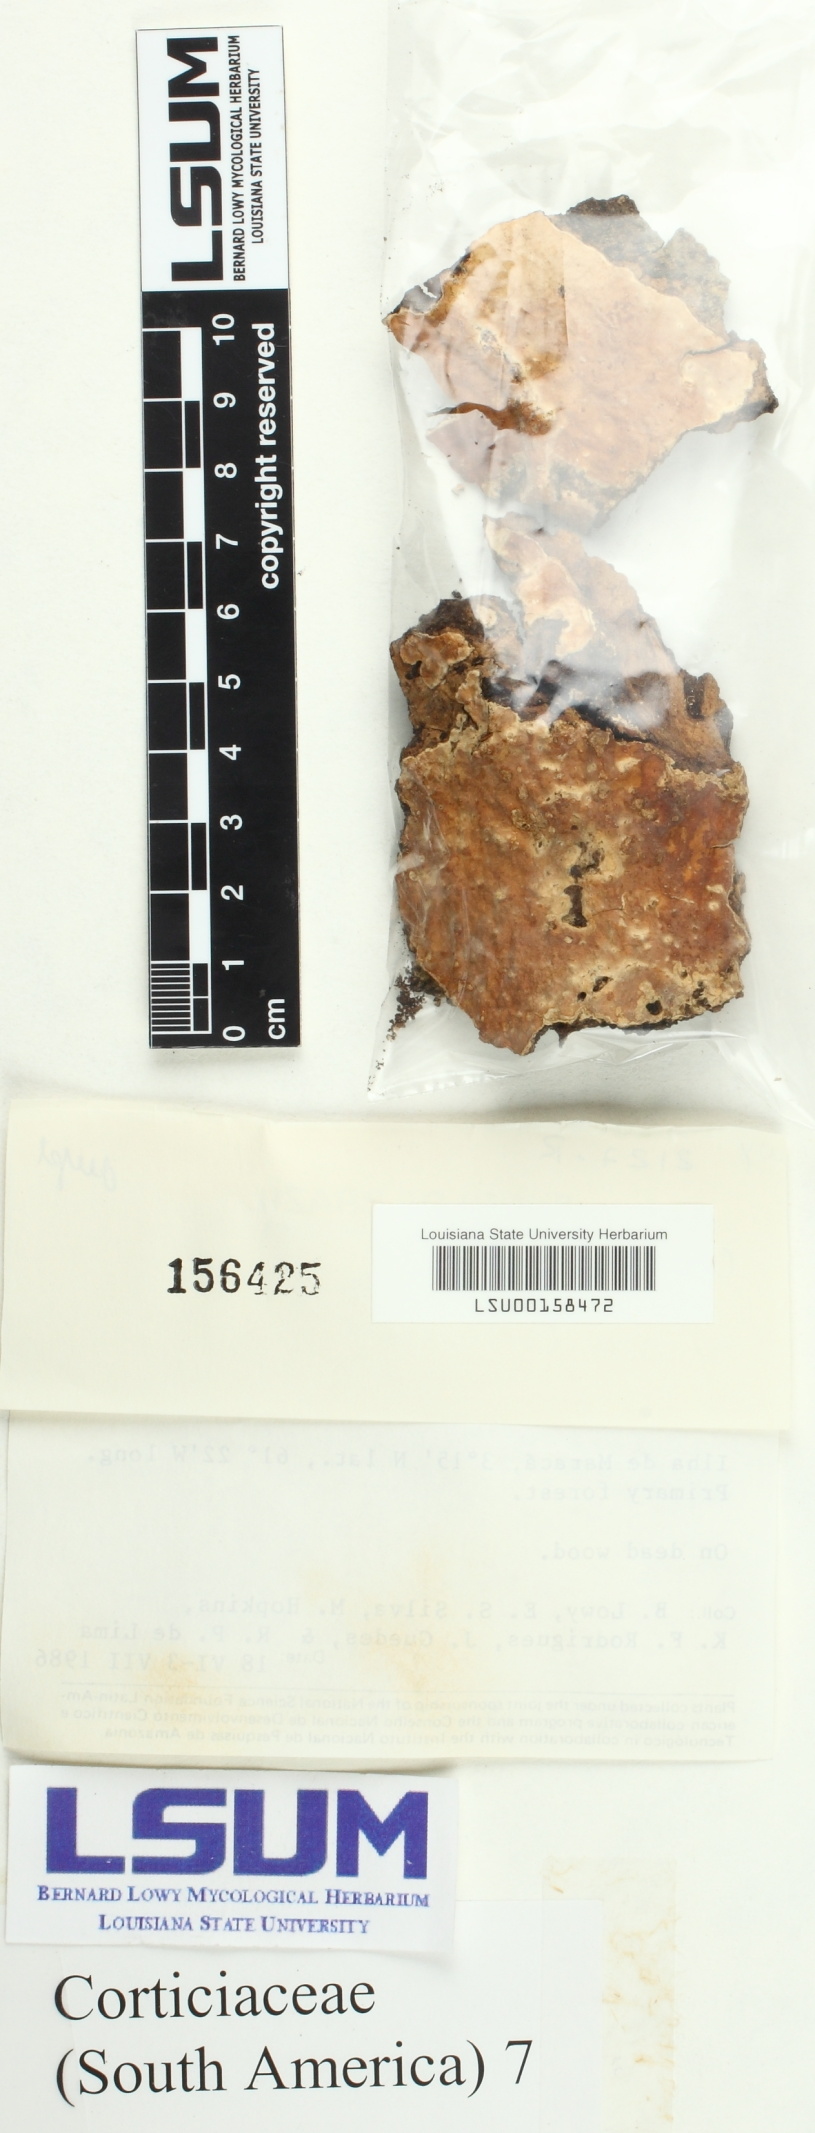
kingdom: Fungi
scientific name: Fungi
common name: Fungi
